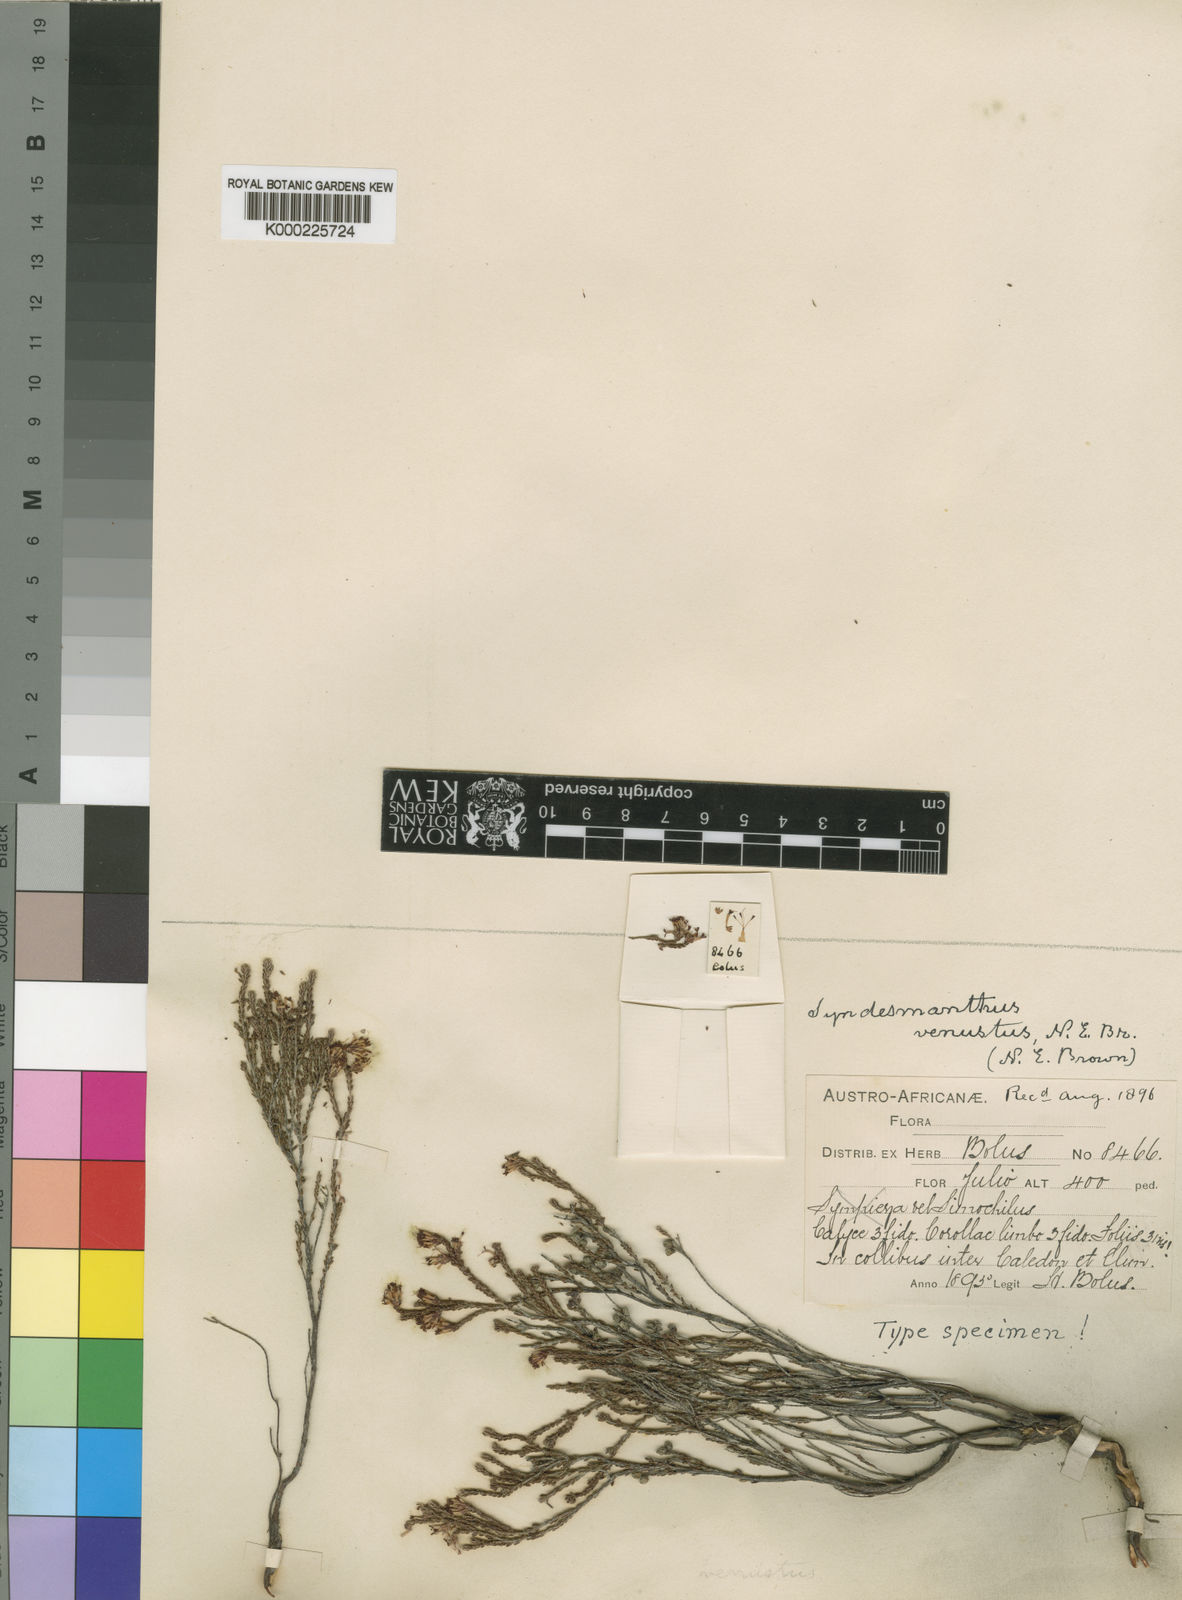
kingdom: Plantae
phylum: Tracheophyta
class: Magnoliopsida
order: Ericales
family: Ericaceae
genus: Erica
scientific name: Erica venustiflora
